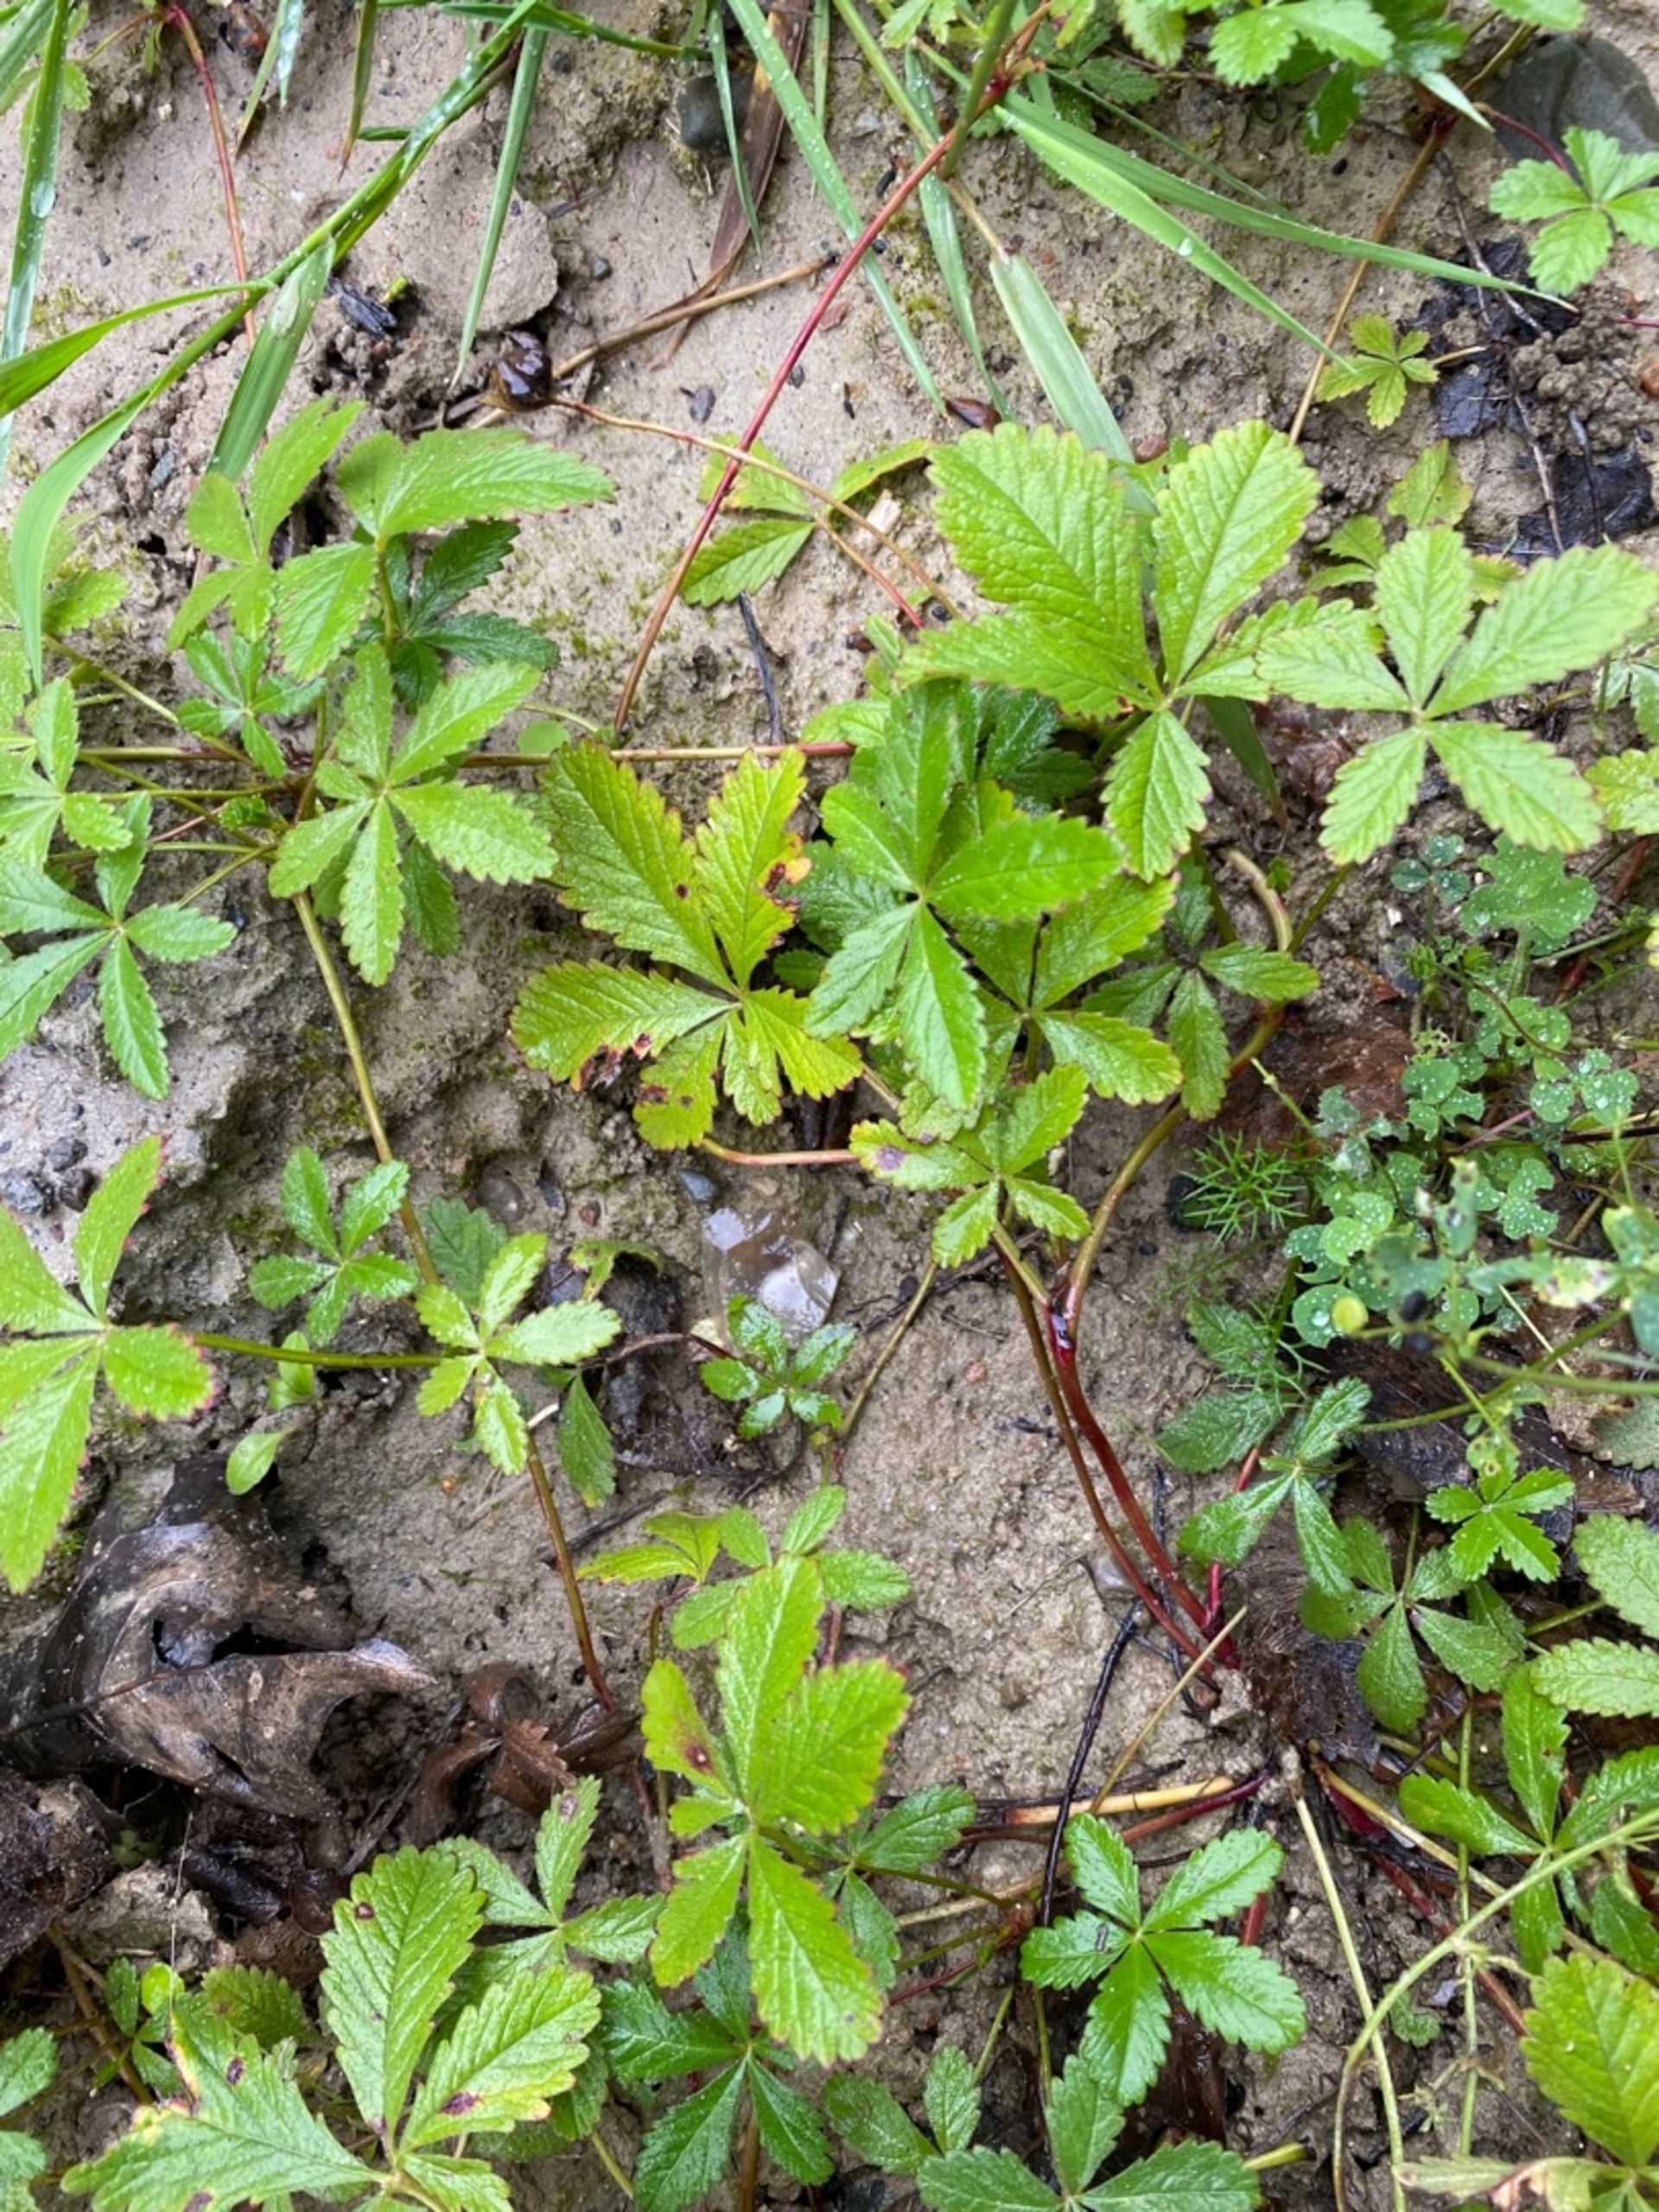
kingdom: Plantae
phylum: Tracheophyta
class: Magnoliopsida
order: Rosales
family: Rosaceae
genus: Potentilla
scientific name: Potentilla reptans
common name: Krybende potentil
